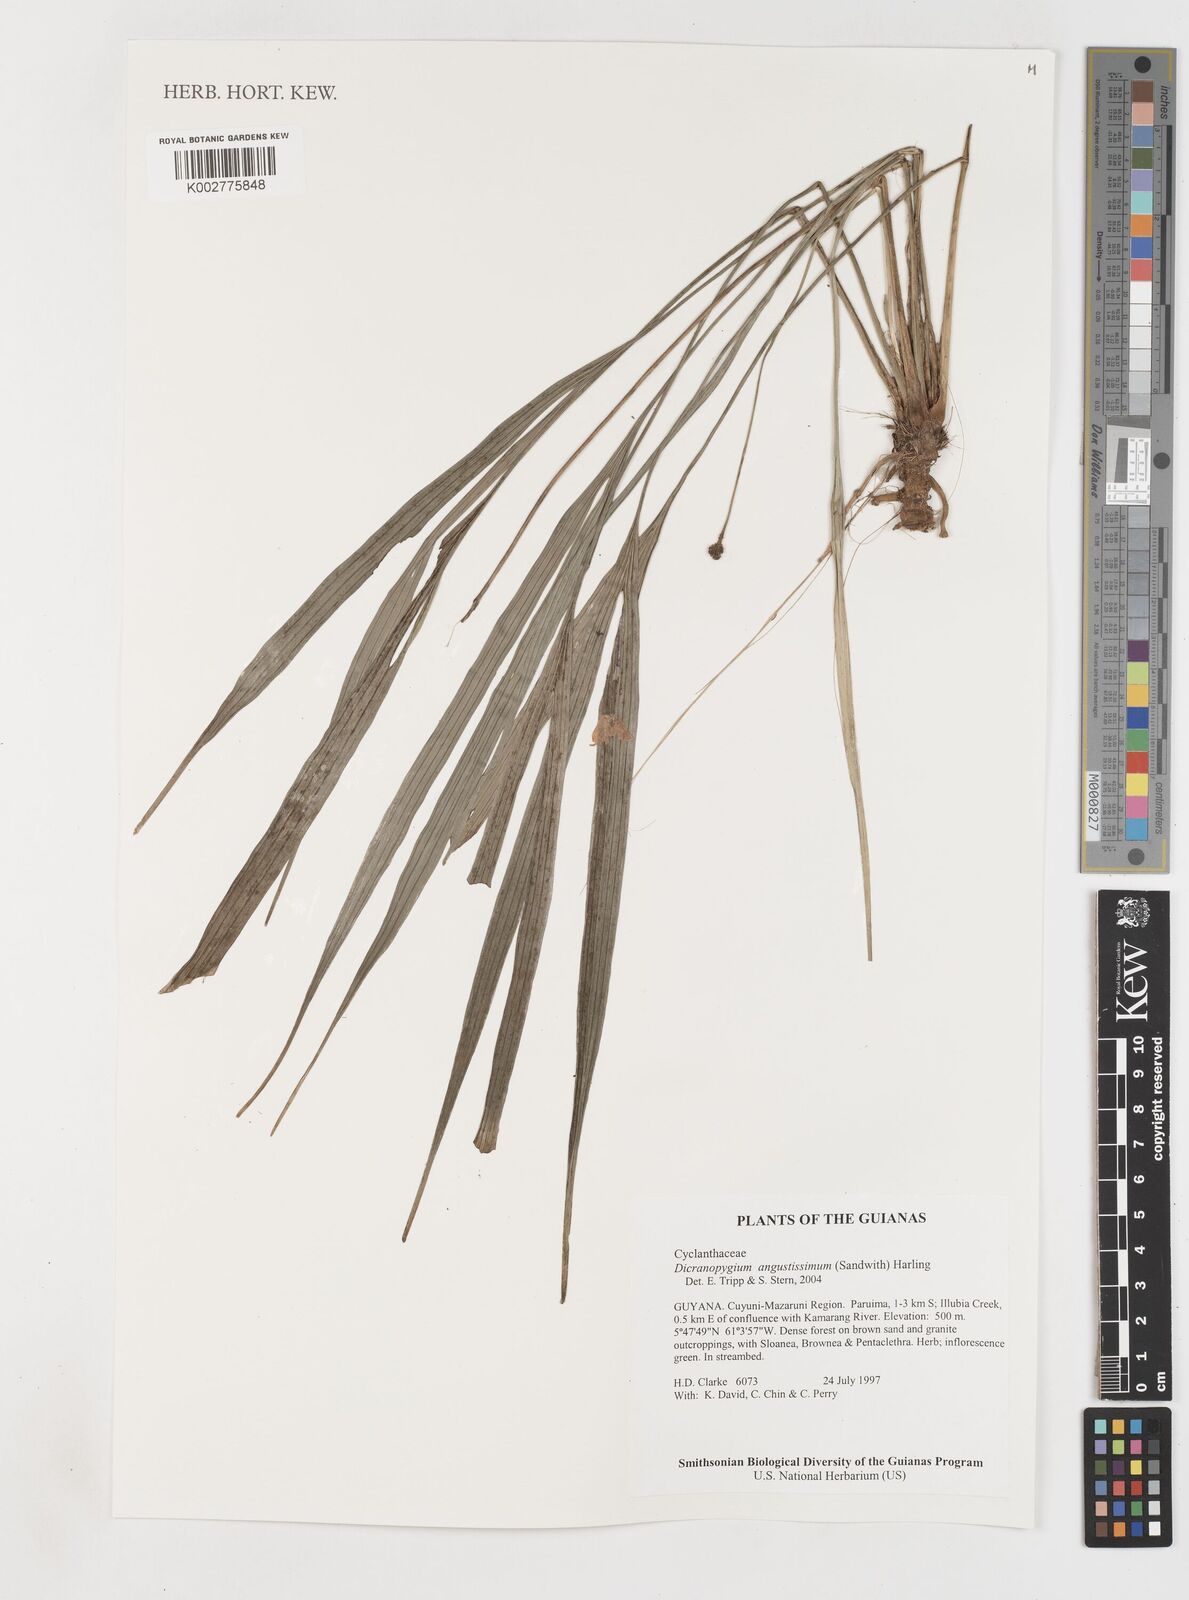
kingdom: Plantae
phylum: Tracheophyta
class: Liliopsida
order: Pandanales
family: Cyclanthaceae
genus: Dicranopygium
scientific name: Dicranopygium angustissimum
